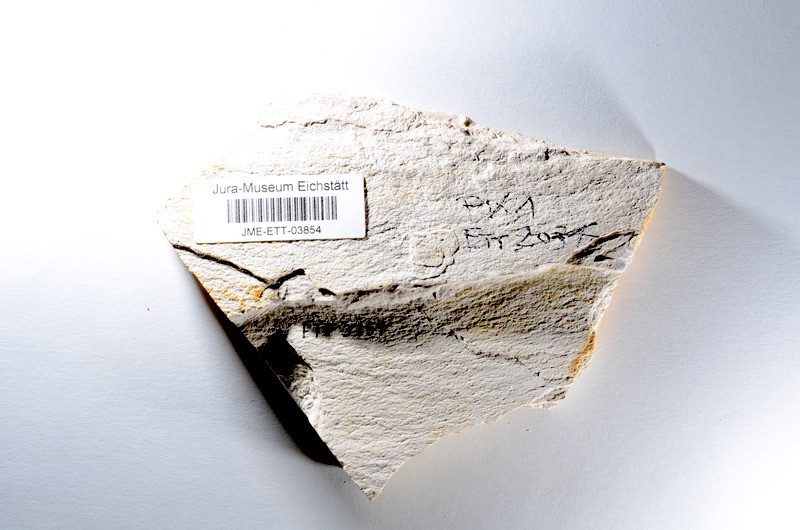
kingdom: Animalia
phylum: Chordata
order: Salmoniformes
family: Orthogonikleithridae
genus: Orthogonikleithrus
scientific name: Orthogonikleithrus hoelli
